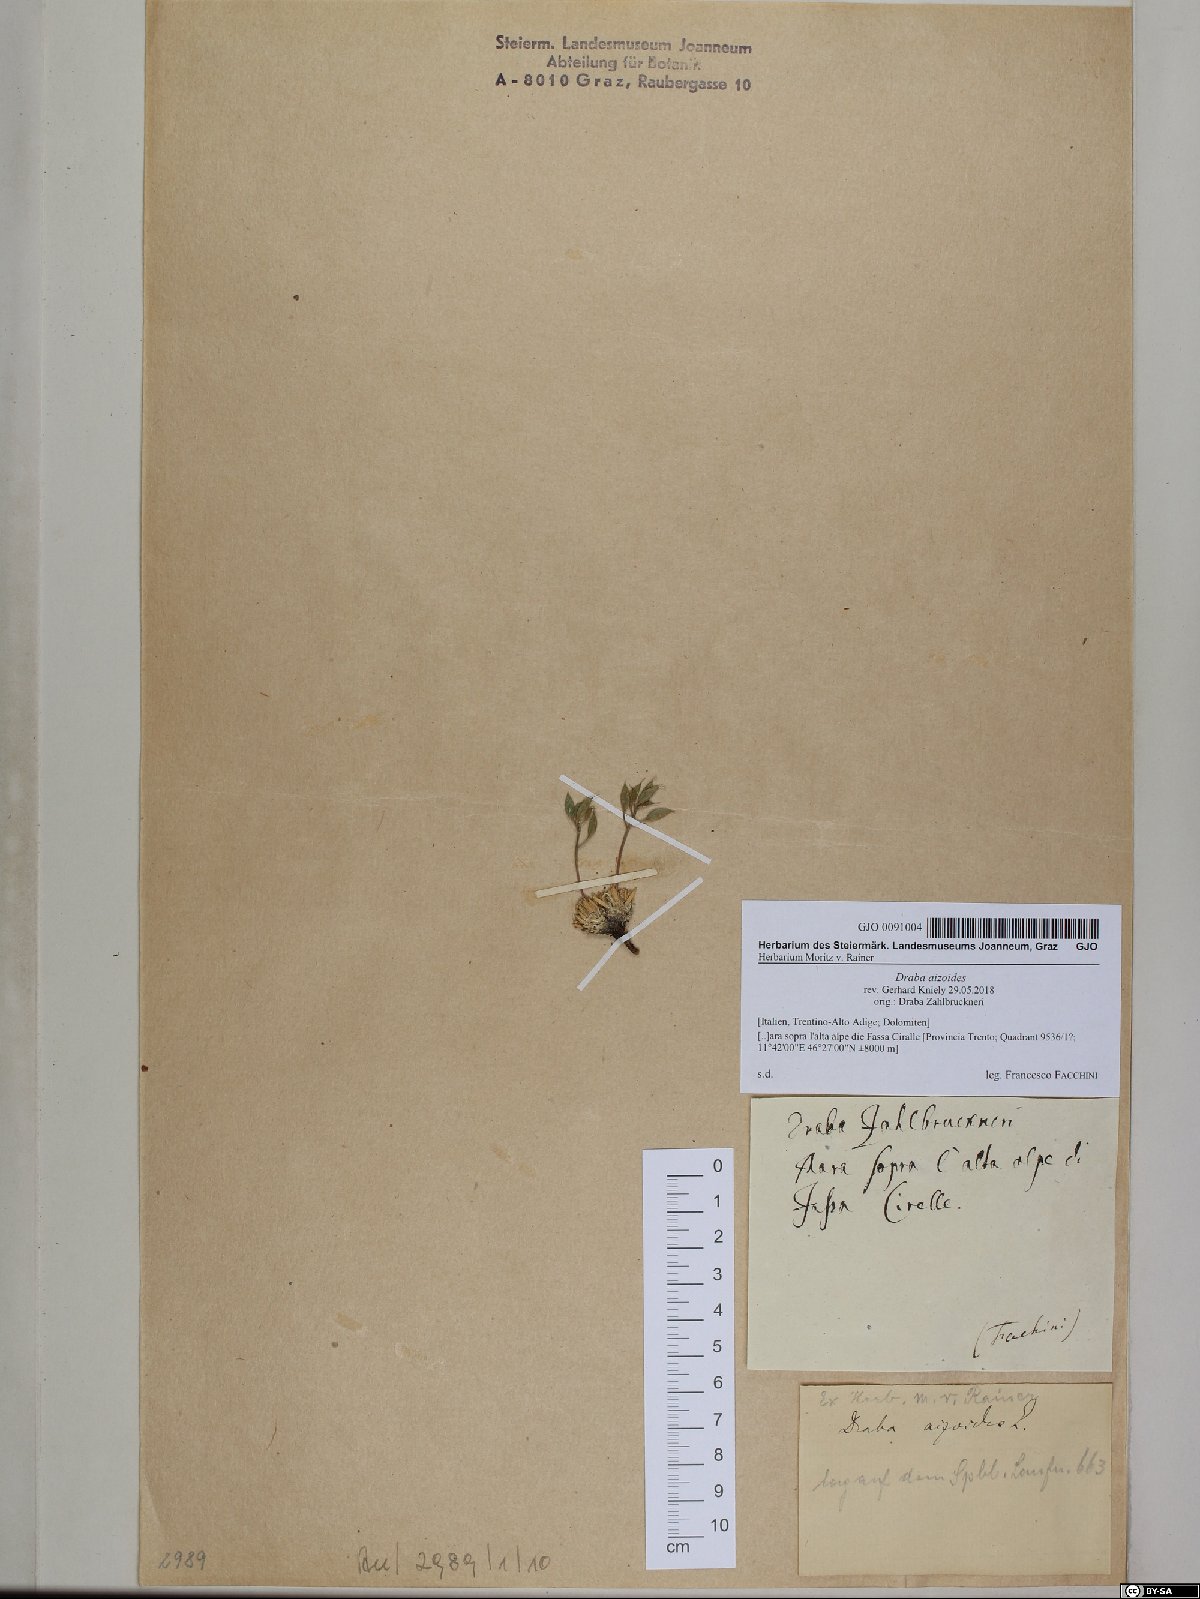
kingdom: Plantae
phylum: Tracheophyta
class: Magnoliopsida
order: Brassicales
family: Brassicaceae
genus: Draba
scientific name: Draba aizoides
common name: Yellow whitlowgrass
